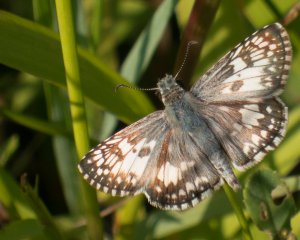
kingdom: Animalia
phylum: Arthropoda
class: Insecta
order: Lepidoptera
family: Hesperiidae
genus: Pyrgus
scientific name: Pyrgus
